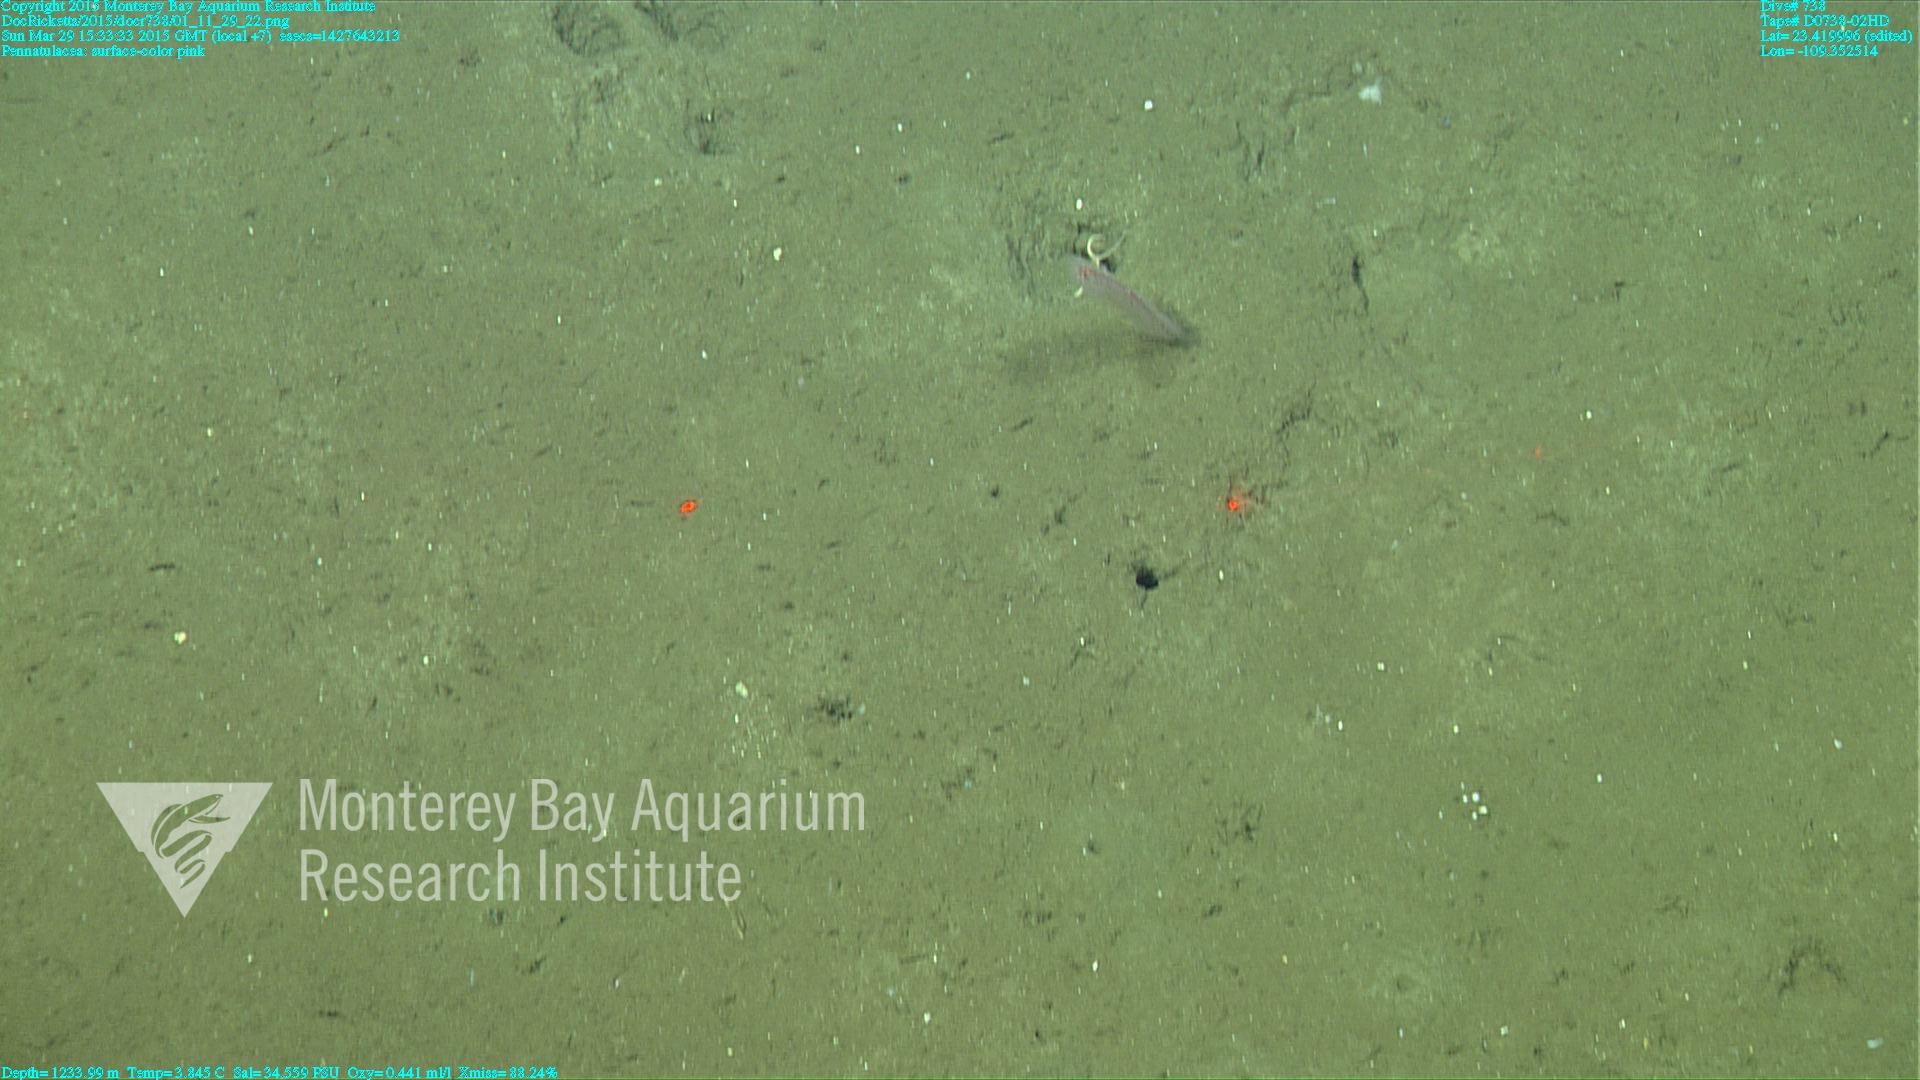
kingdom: Animalia
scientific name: Animalia
